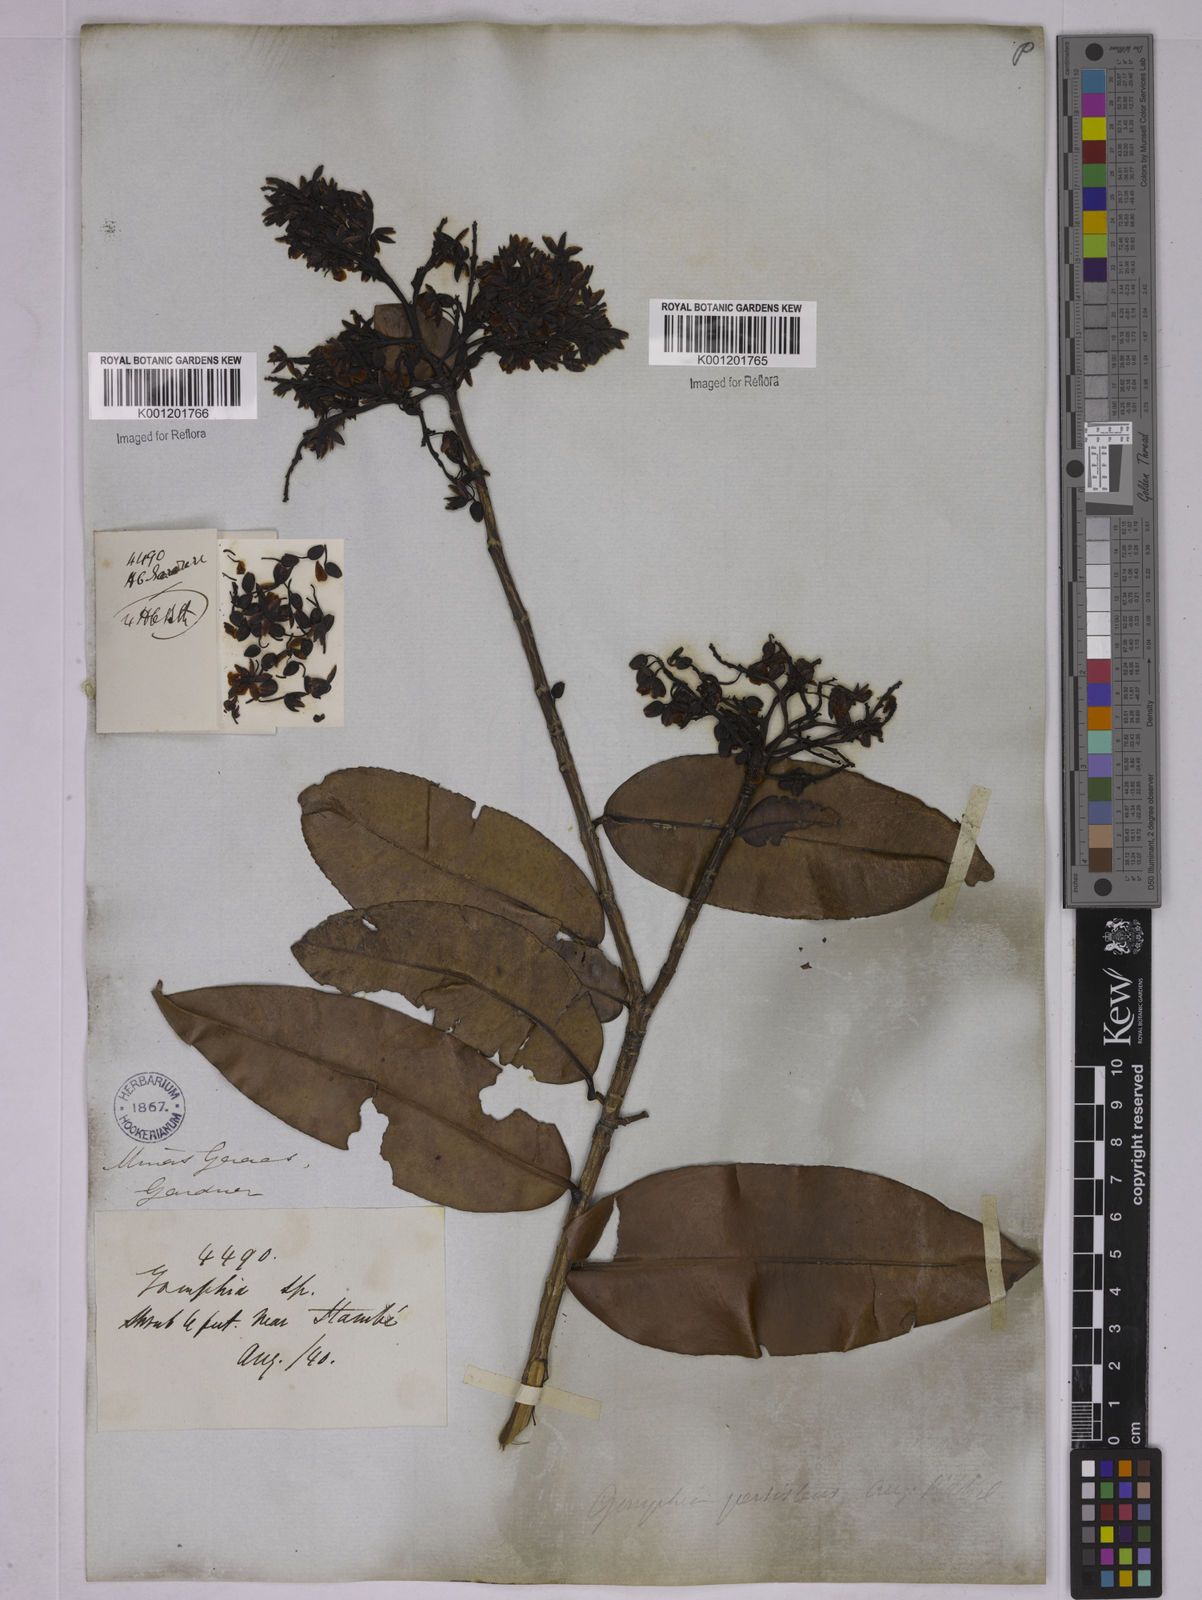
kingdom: Plantae
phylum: Tracheophyta
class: Magnoliopsida
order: Malpighiales
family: Ochnaceae
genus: Ouratea
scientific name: Ouratea semiserrata
